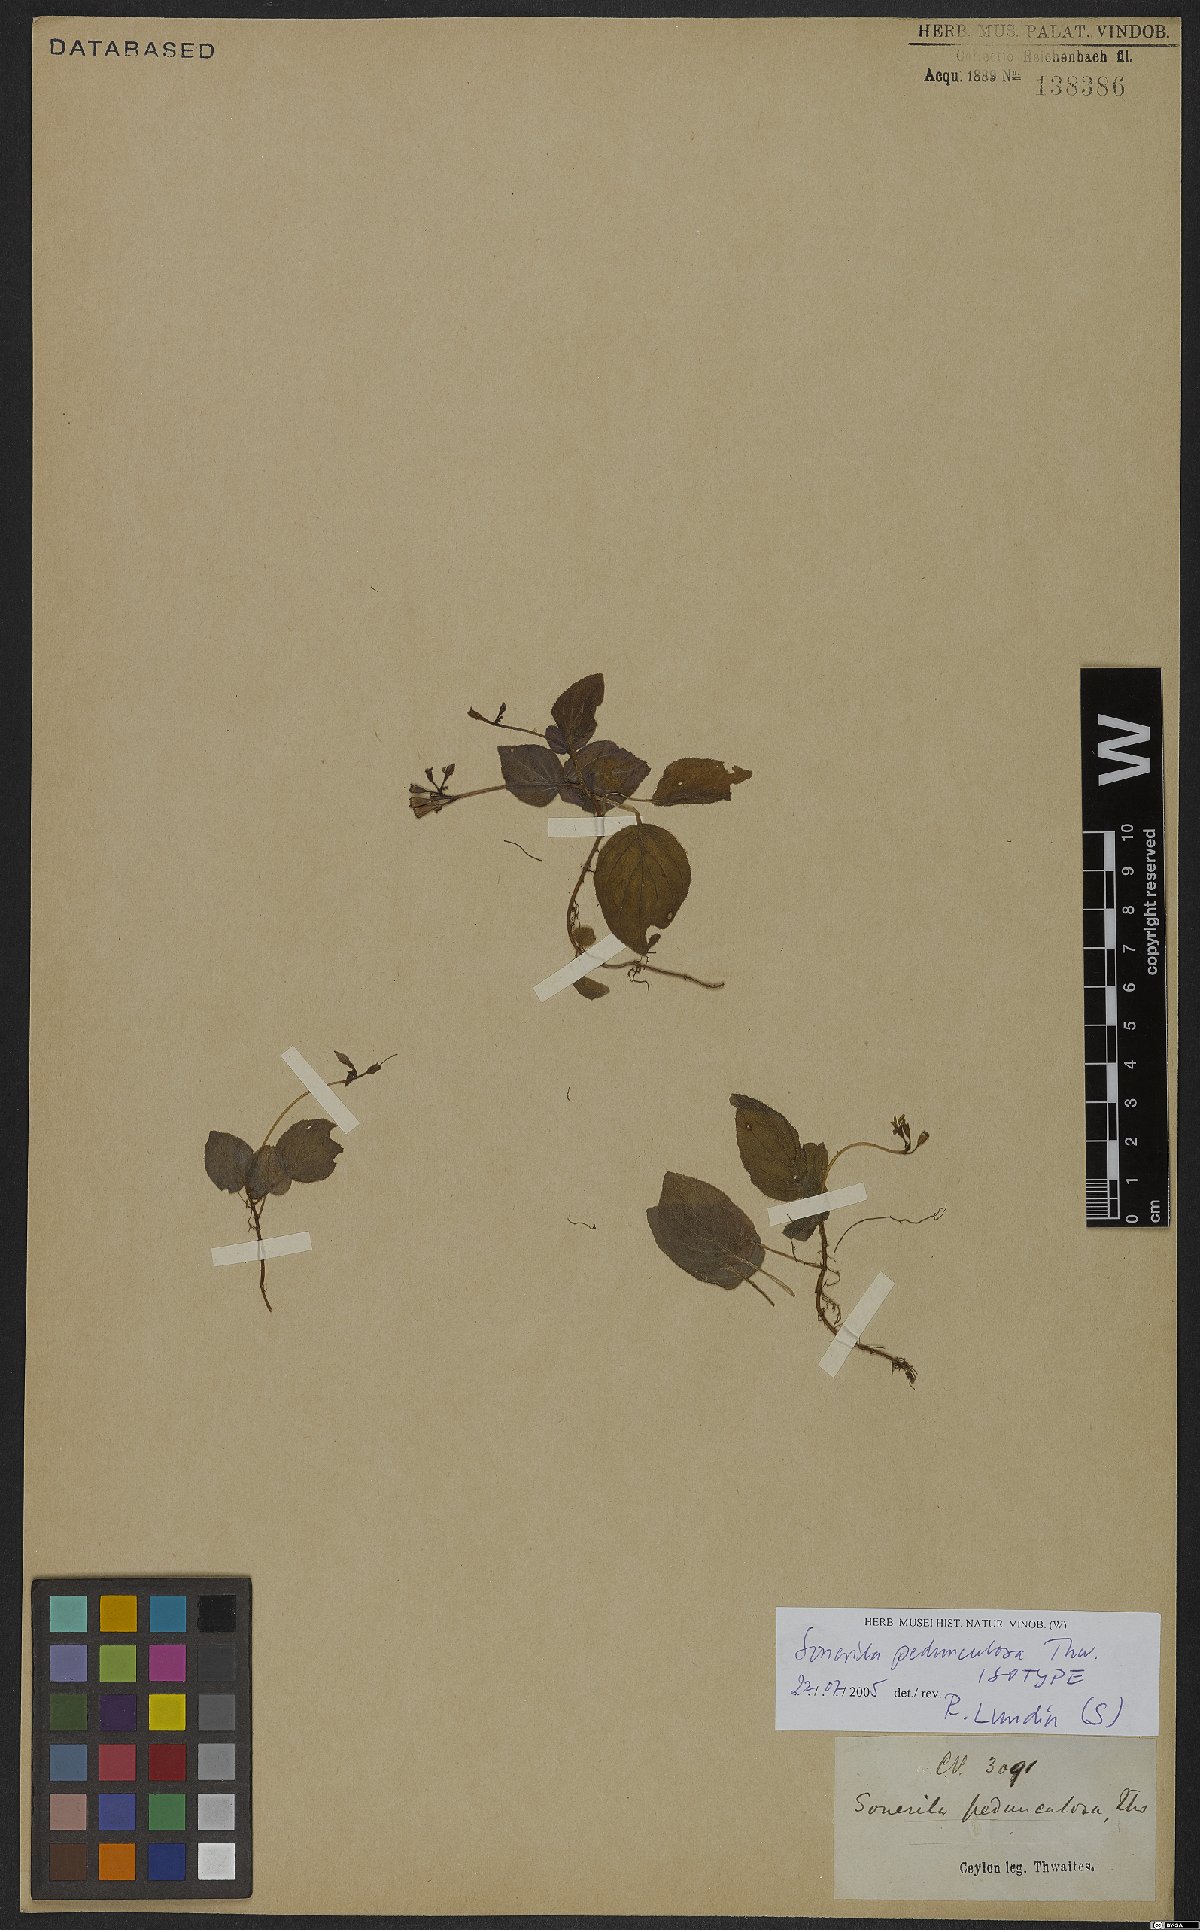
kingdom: Plantae
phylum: Tracheophyta
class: Magnoliopsida
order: Myrtales
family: Melastomataceae
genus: Sonerila
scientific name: Sonerila pedunculosa
